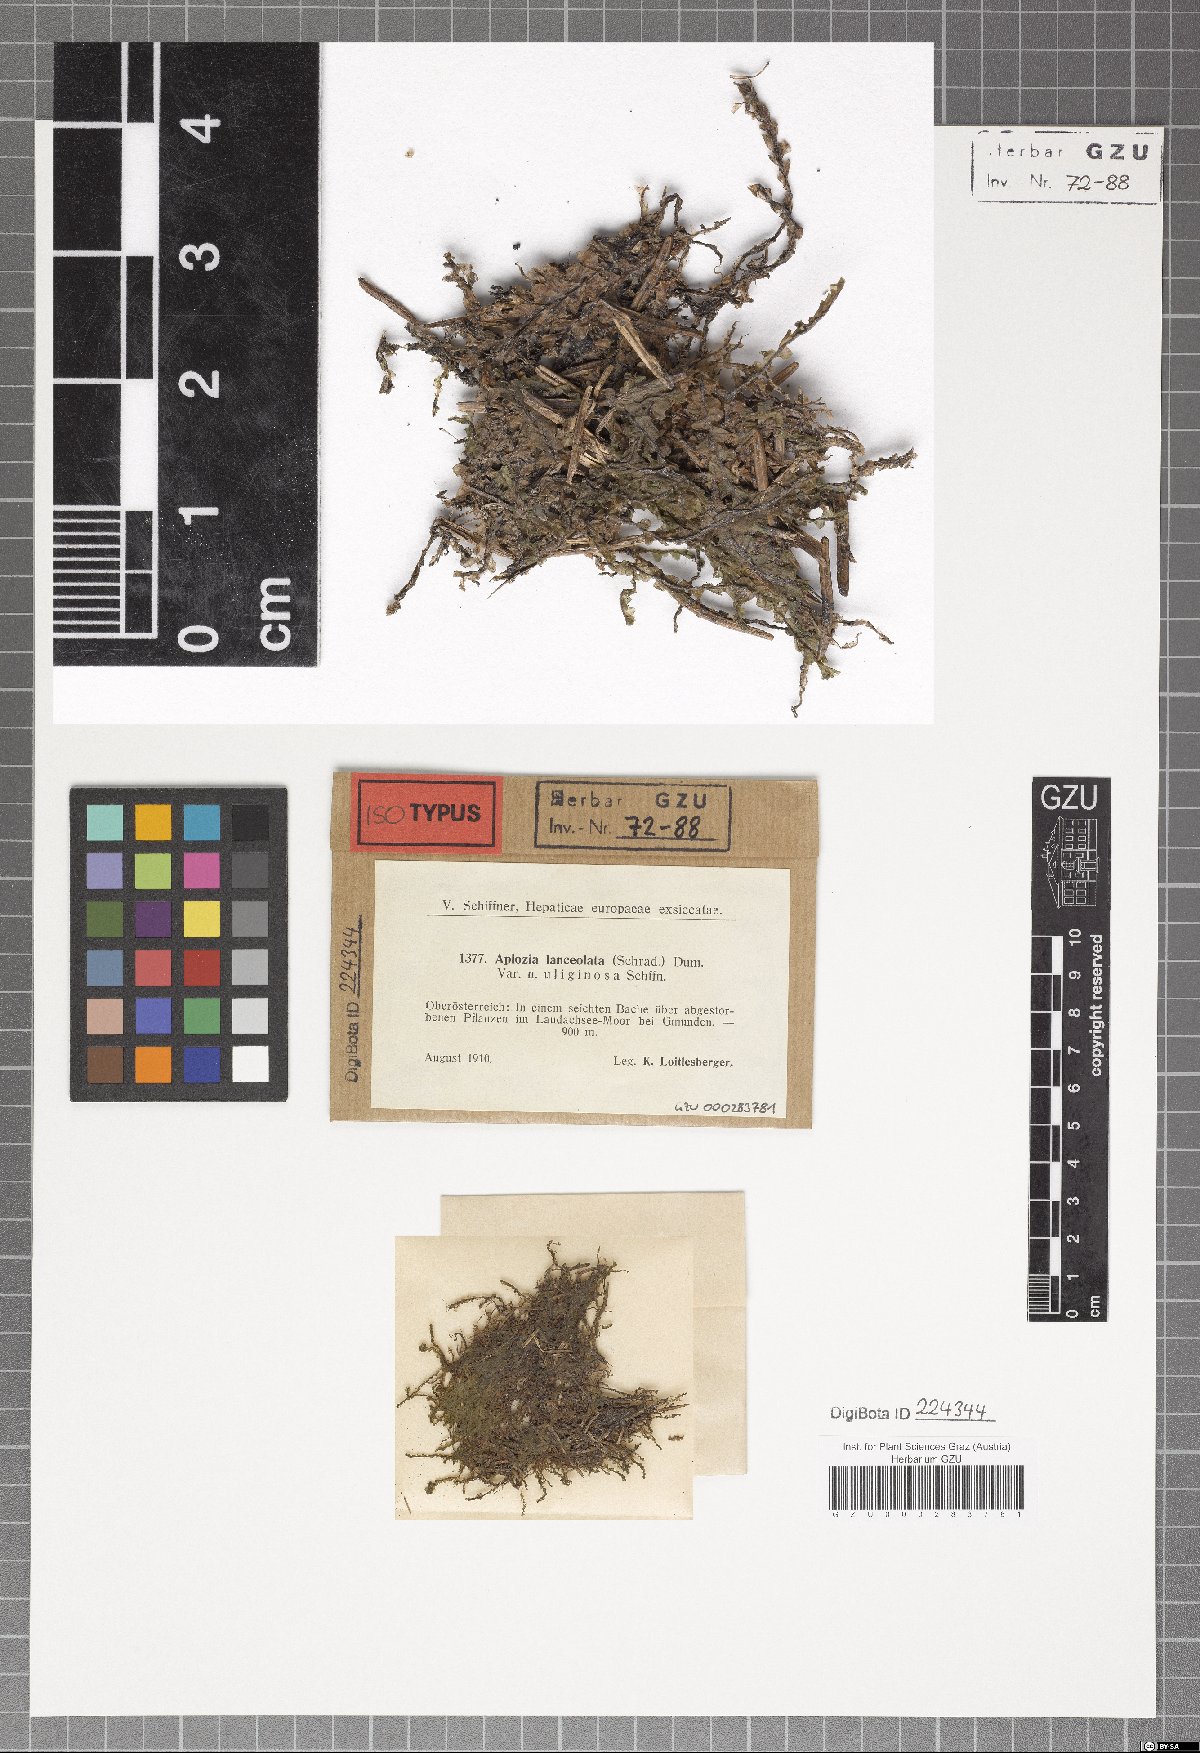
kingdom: Plantae
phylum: Marchantiophyta
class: Jungermanniopsida
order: Jungermanniales
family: Jungermanniaceae
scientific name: Jungermanniaceae
